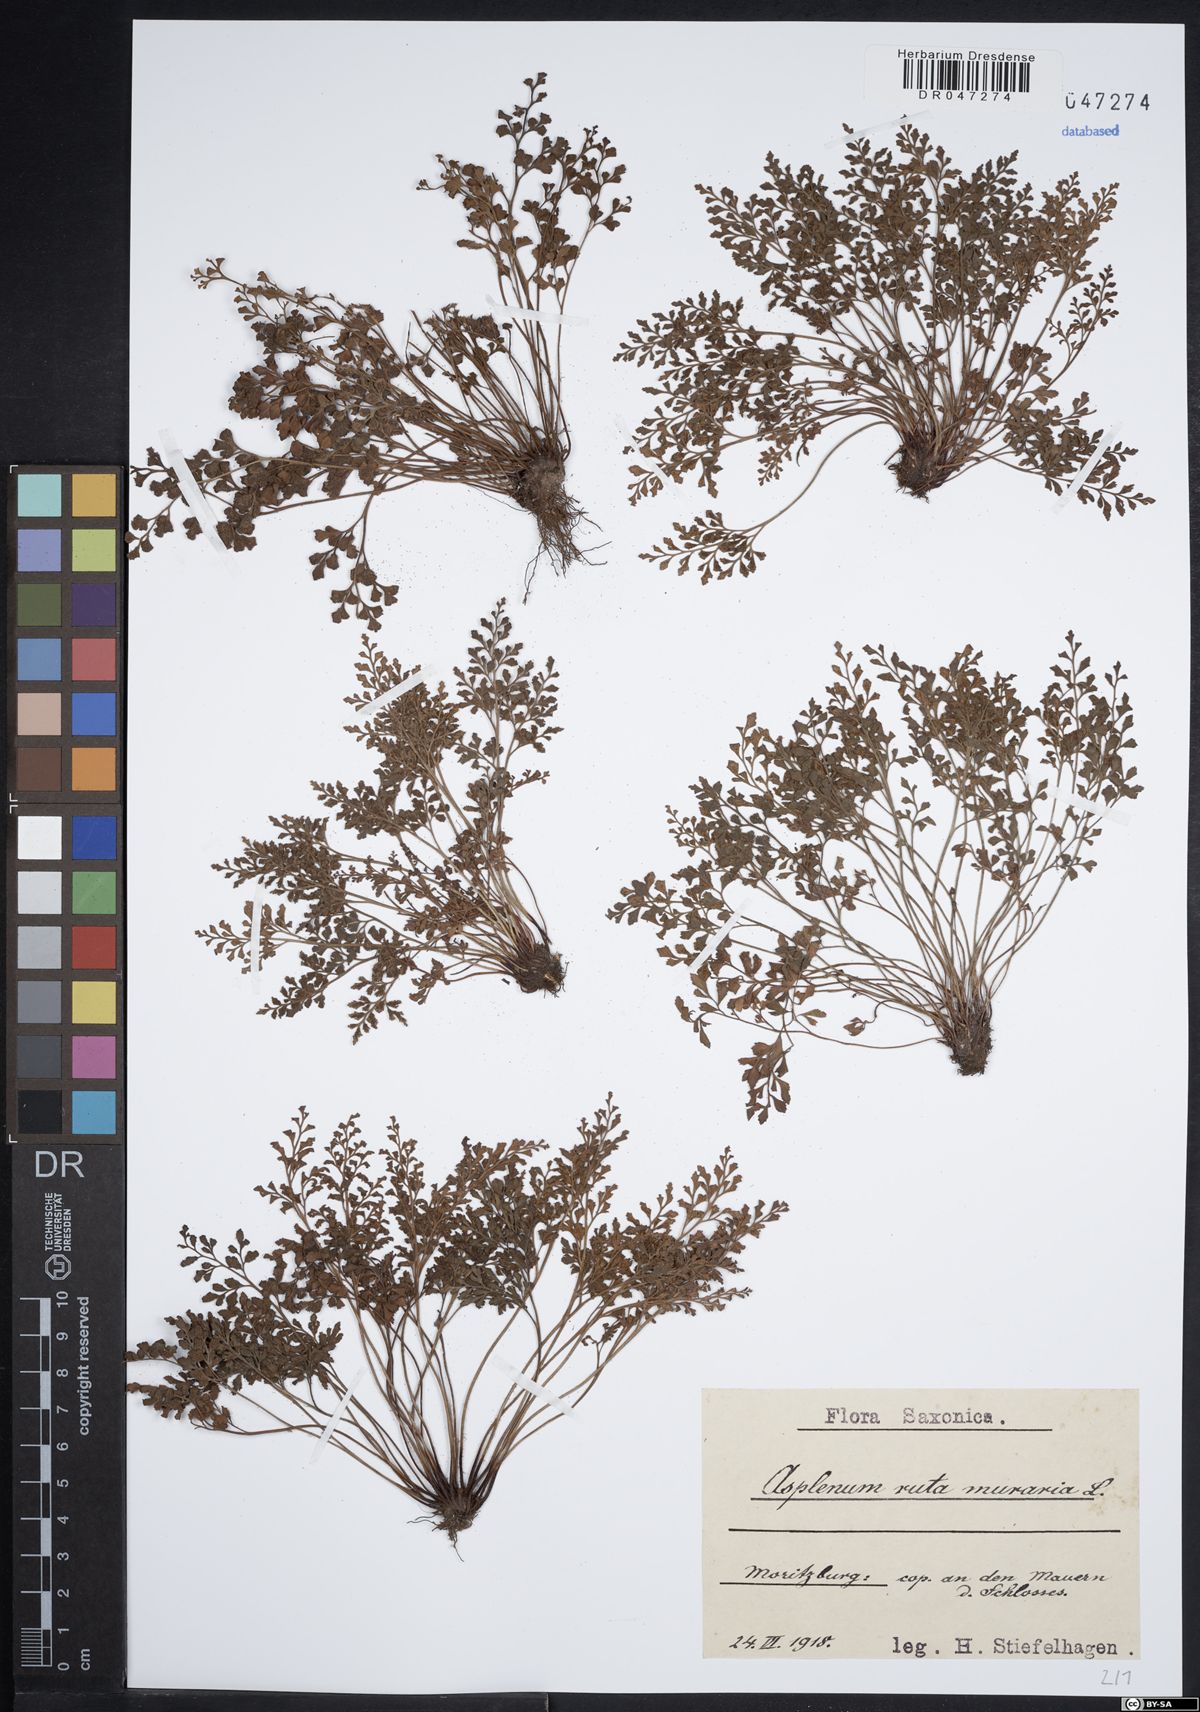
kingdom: Plantae
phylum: Tracheophyta
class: Polypodiopsida
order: Polypodiales
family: Aspleniaceae
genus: Asplenium
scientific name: Asplenium ruta-muraria
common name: Wall-rue
